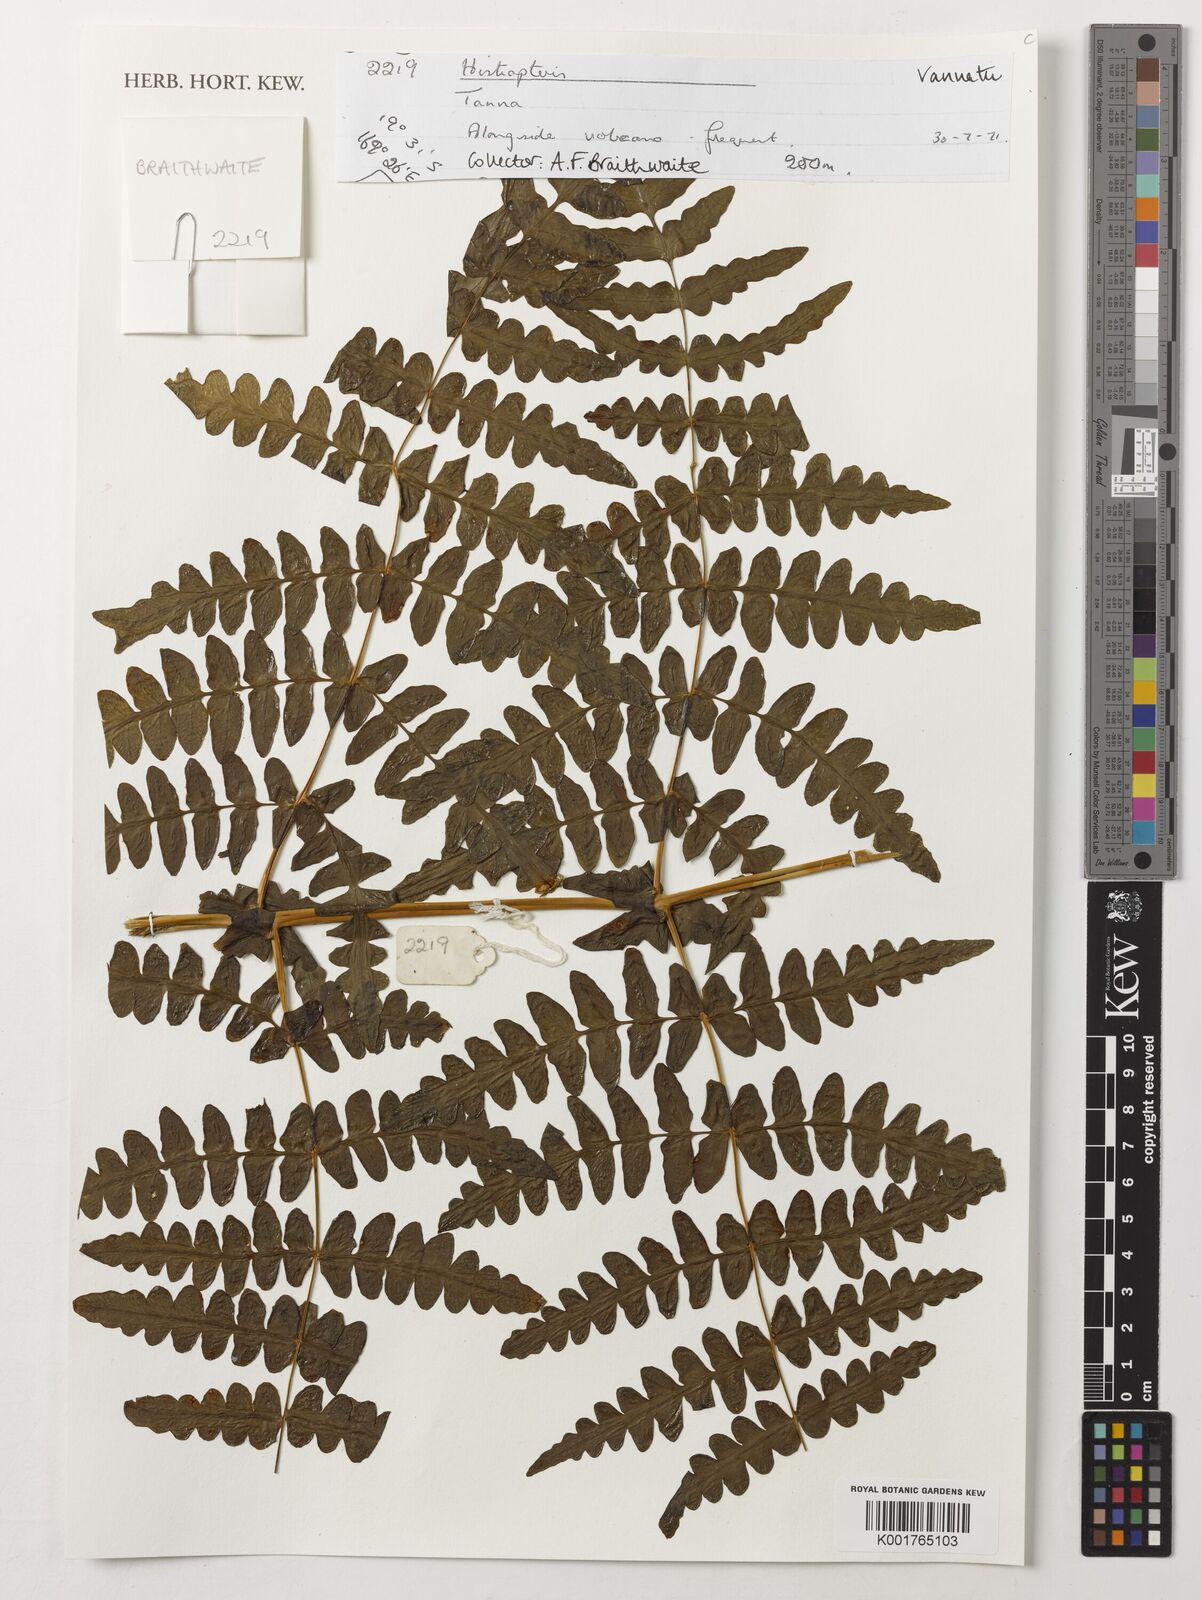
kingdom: Plantae
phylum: Tracheophyta
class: Polypodiopsida
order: Polypodiales
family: Dennstaedtiaceae
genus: Histiopteris
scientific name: Histiopteris
